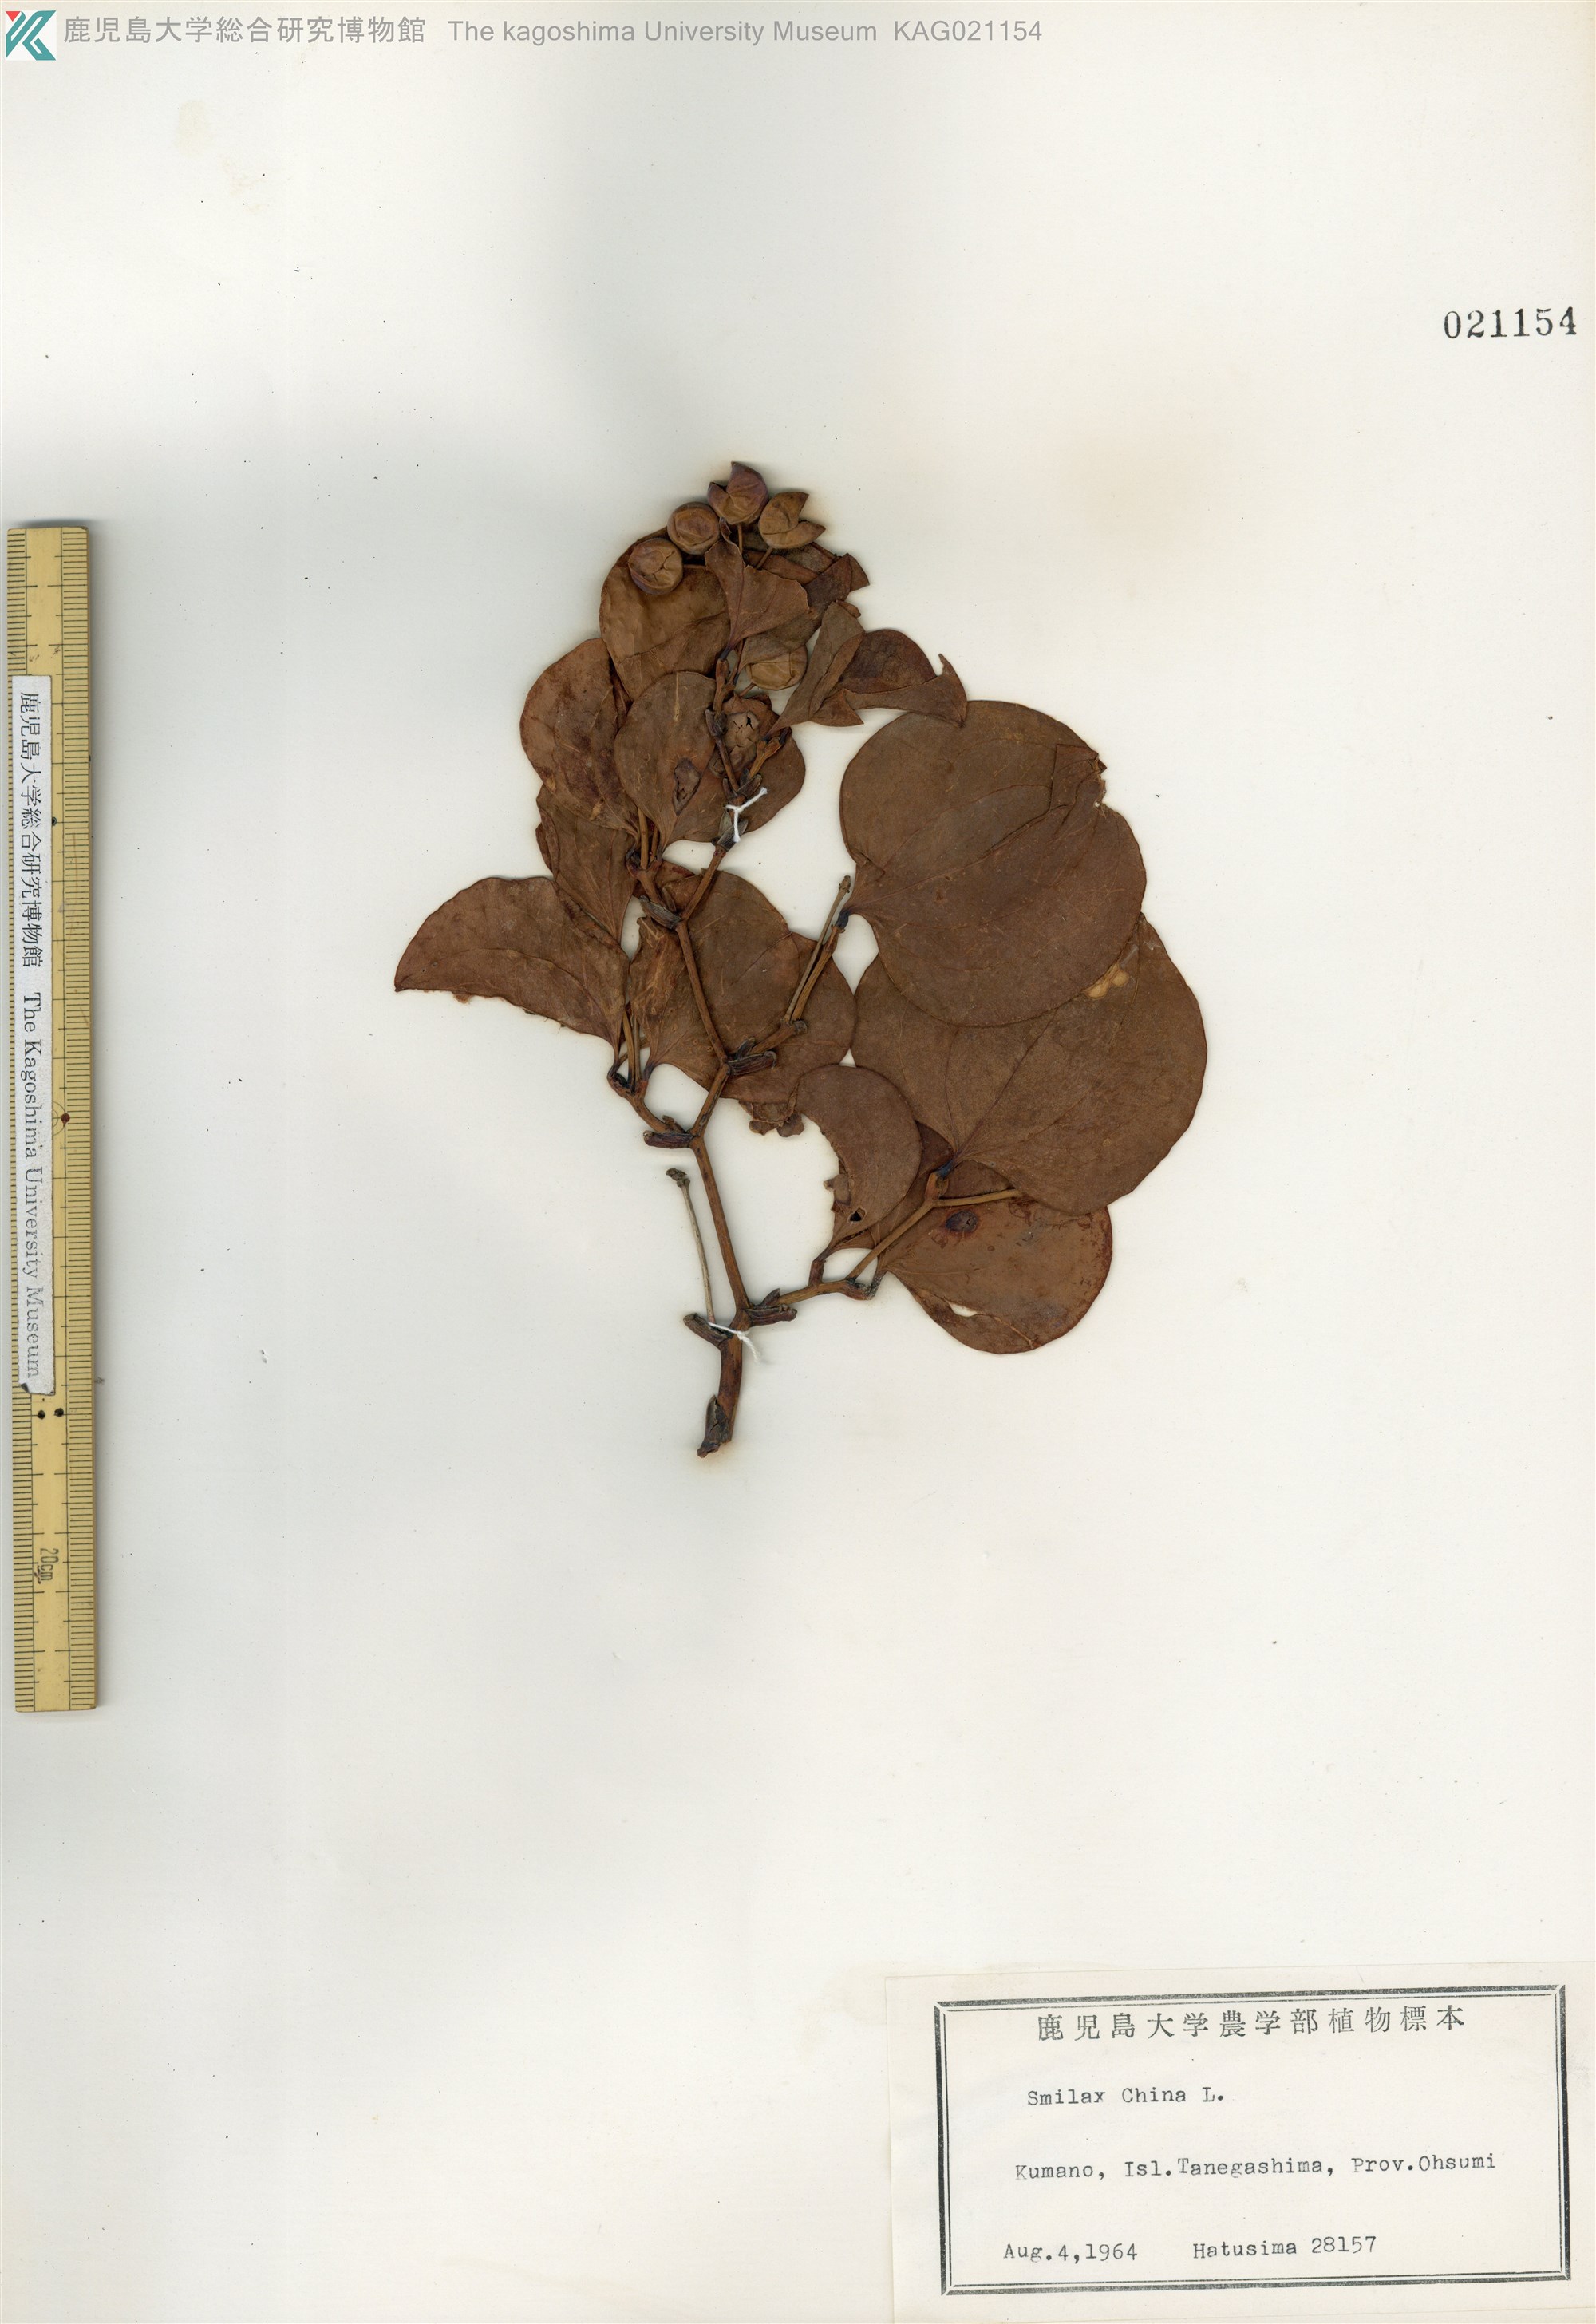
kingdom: Plantae
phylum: Tracheophyta
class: Liliopsida
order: Liliales
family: Smilacaceae
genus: Smilax
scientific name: Smilax china
